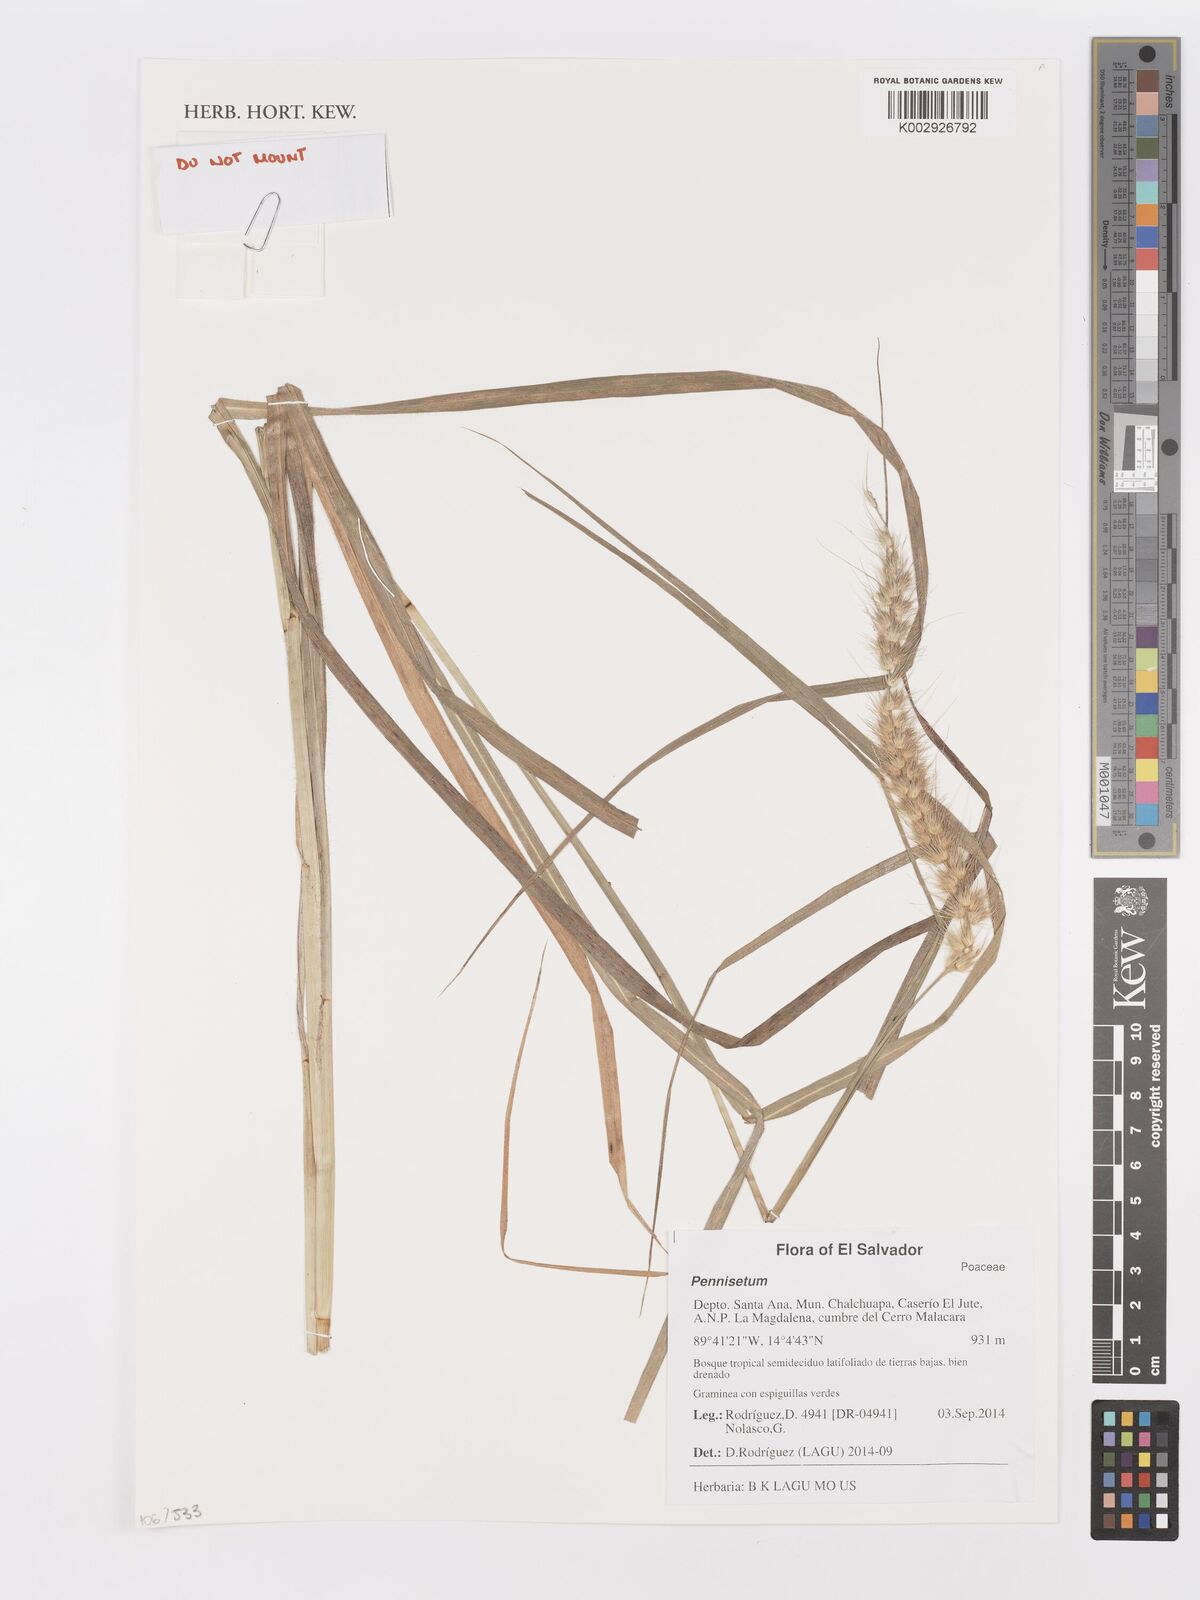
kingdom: Plantae
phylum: Tracheophyta
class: Liliopsida
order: Poales
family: Poaceae
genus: Cenchrus
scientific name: Cenchrus Pennisetum spec
